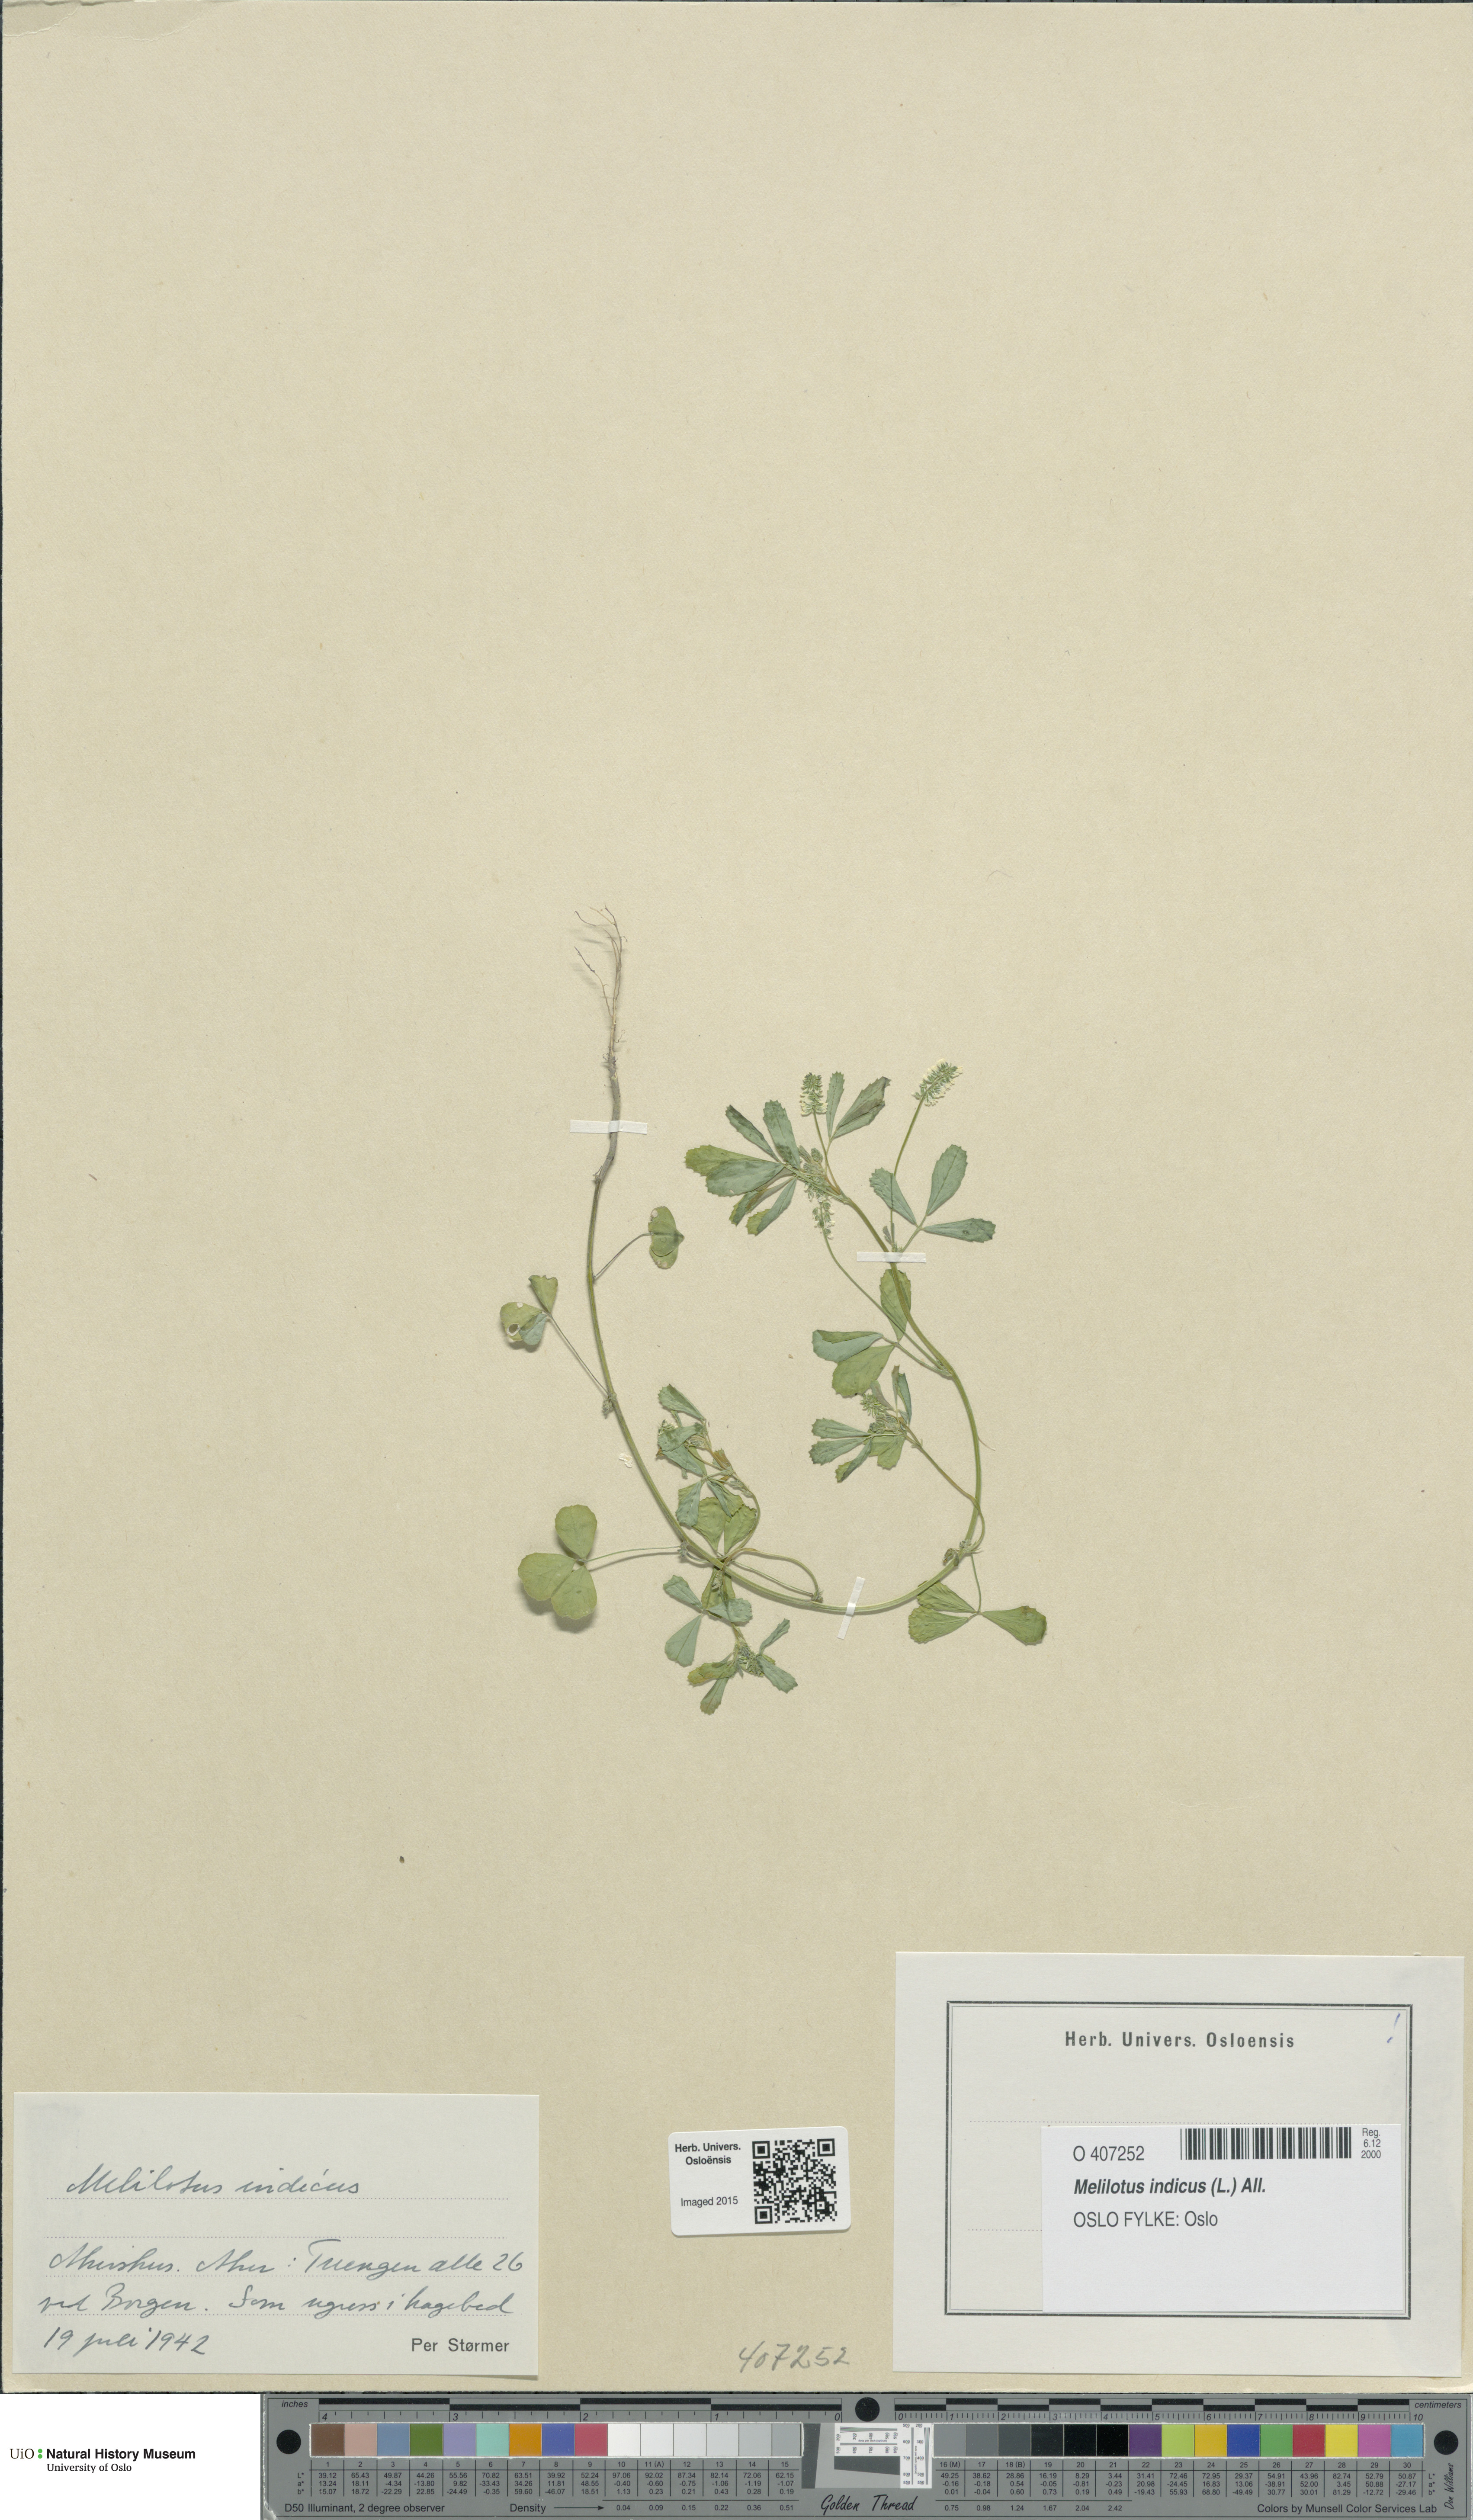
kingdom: Plantae
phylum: Tracheophyta
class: Magnoliopsida
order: Fabales
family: Fabaceae
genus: Melilotus
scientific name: Melilotus indicus
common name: Small melilot
